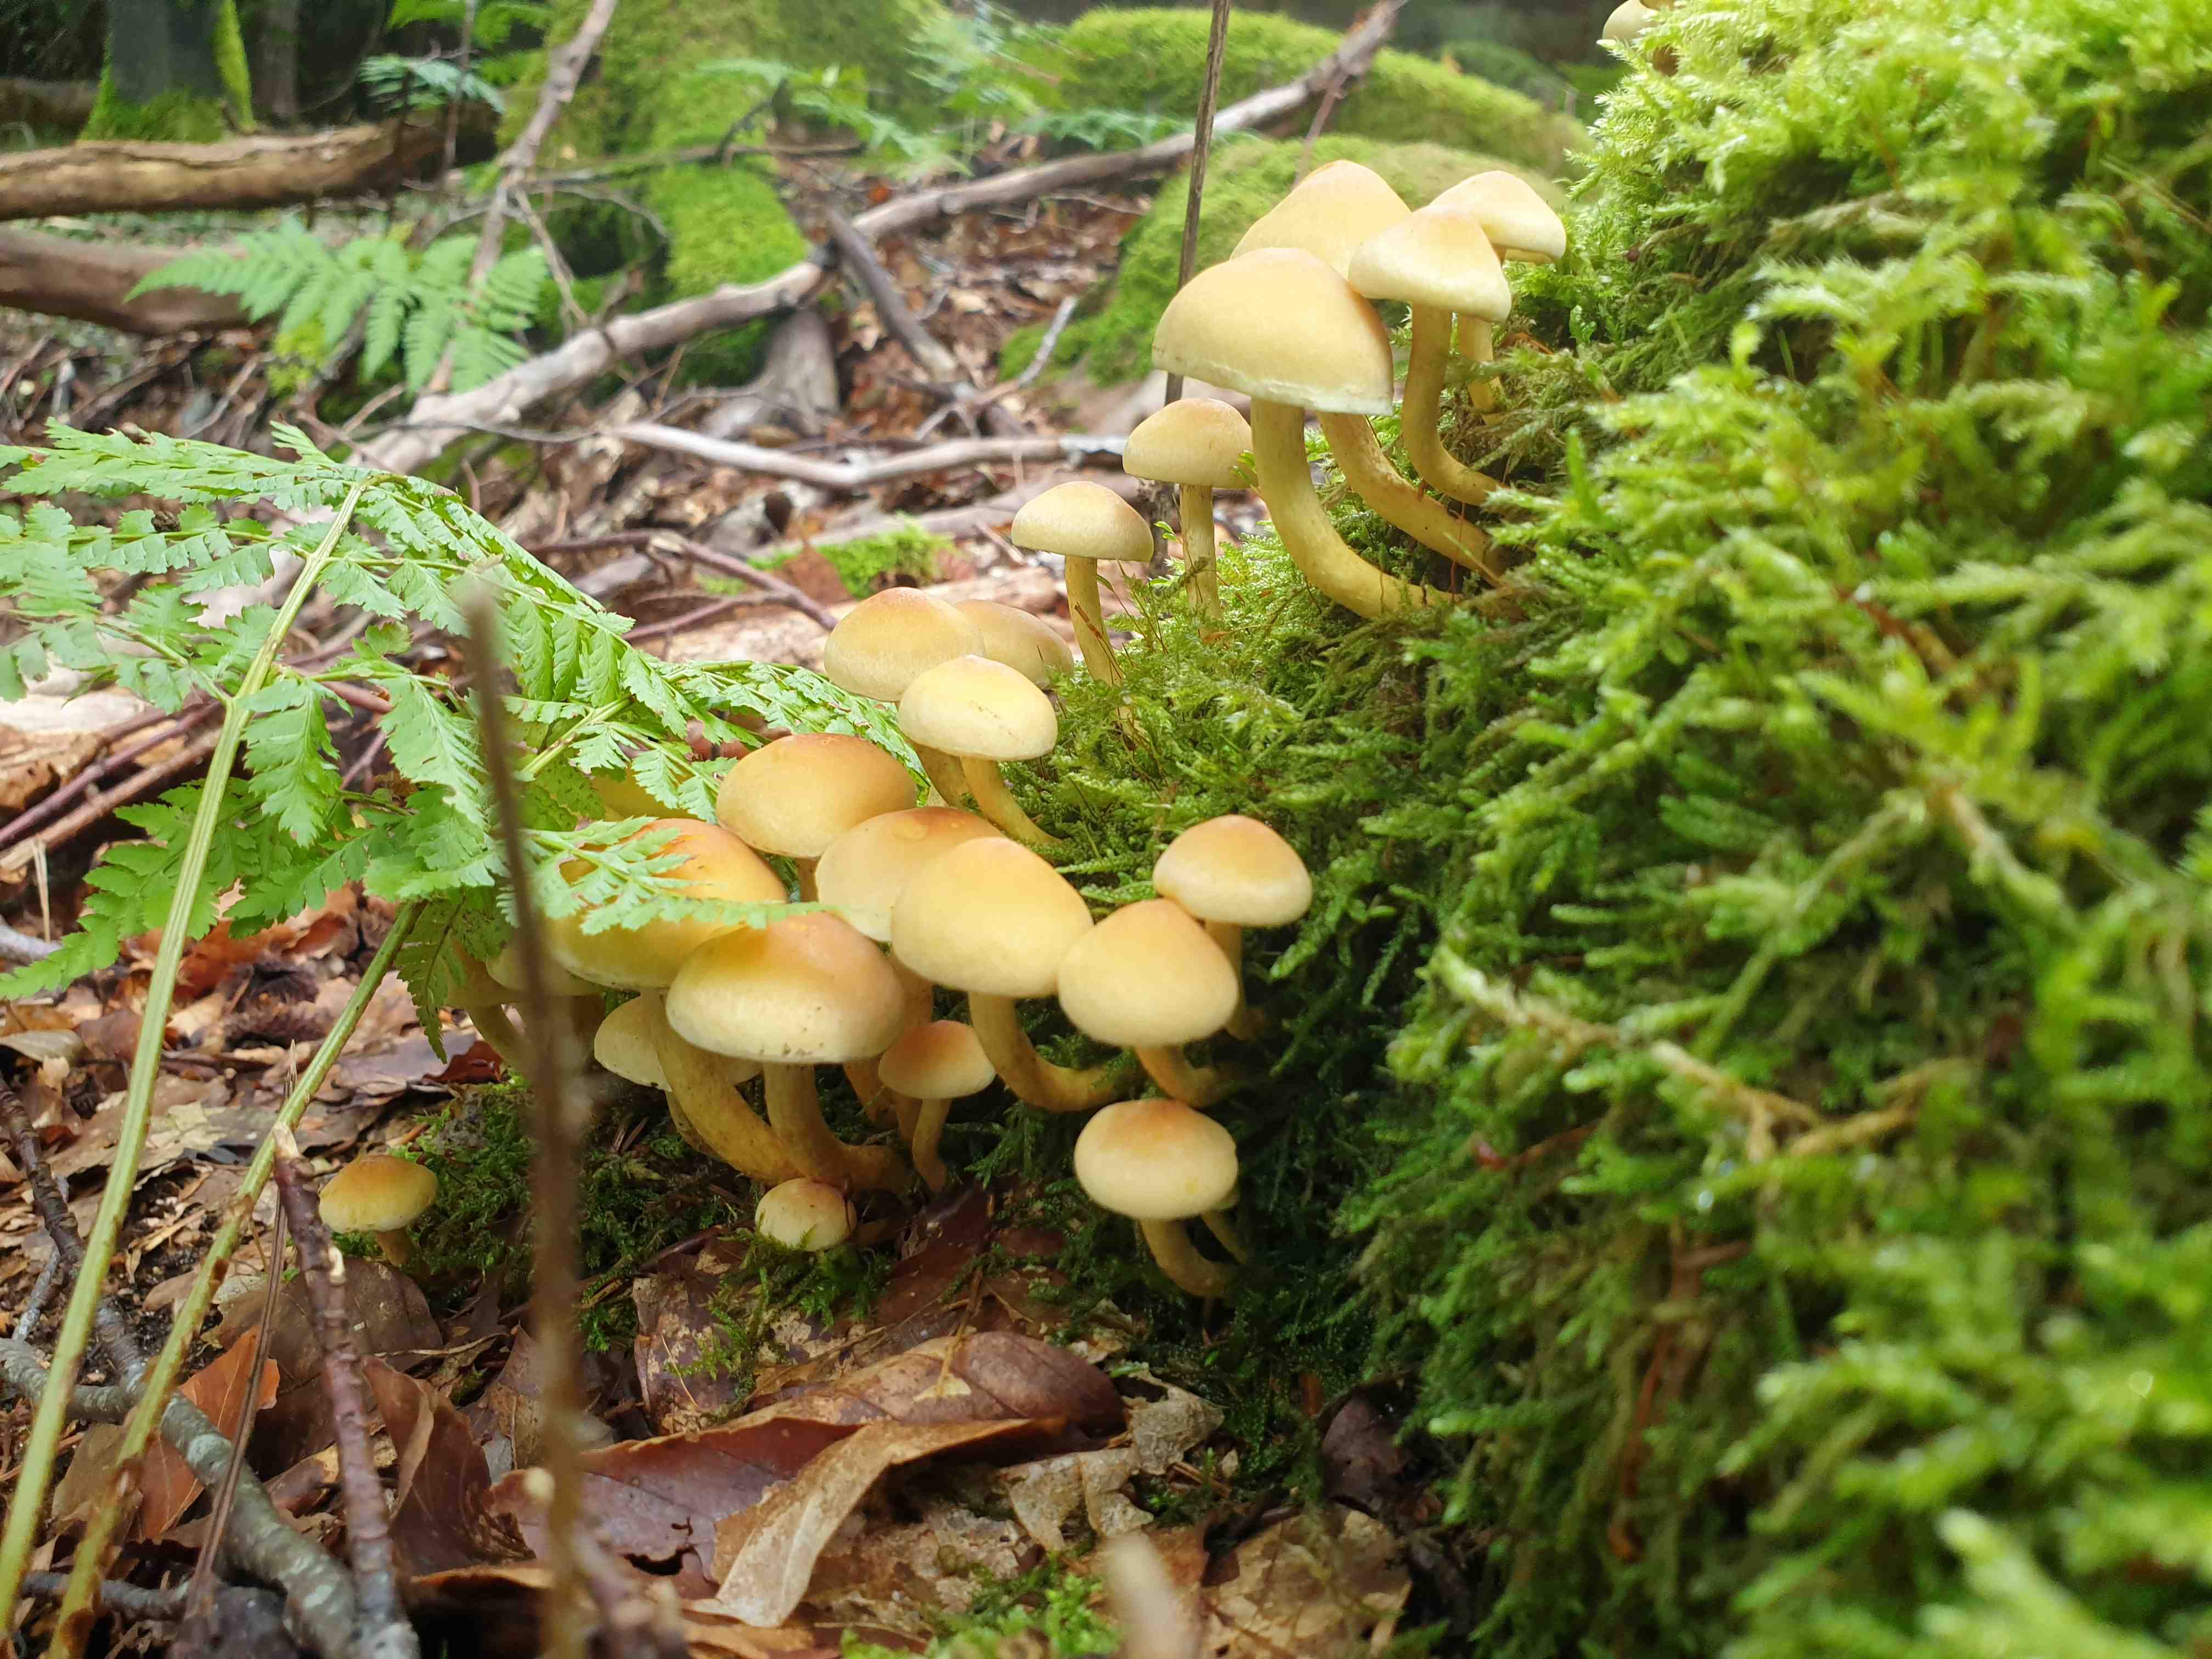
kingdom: Fungi
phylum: Basidiomycota
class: Agaricomycetes
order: Agaricales
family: Strophariaceae
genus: Hypholoma
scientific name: Hypholoma fasciculare
